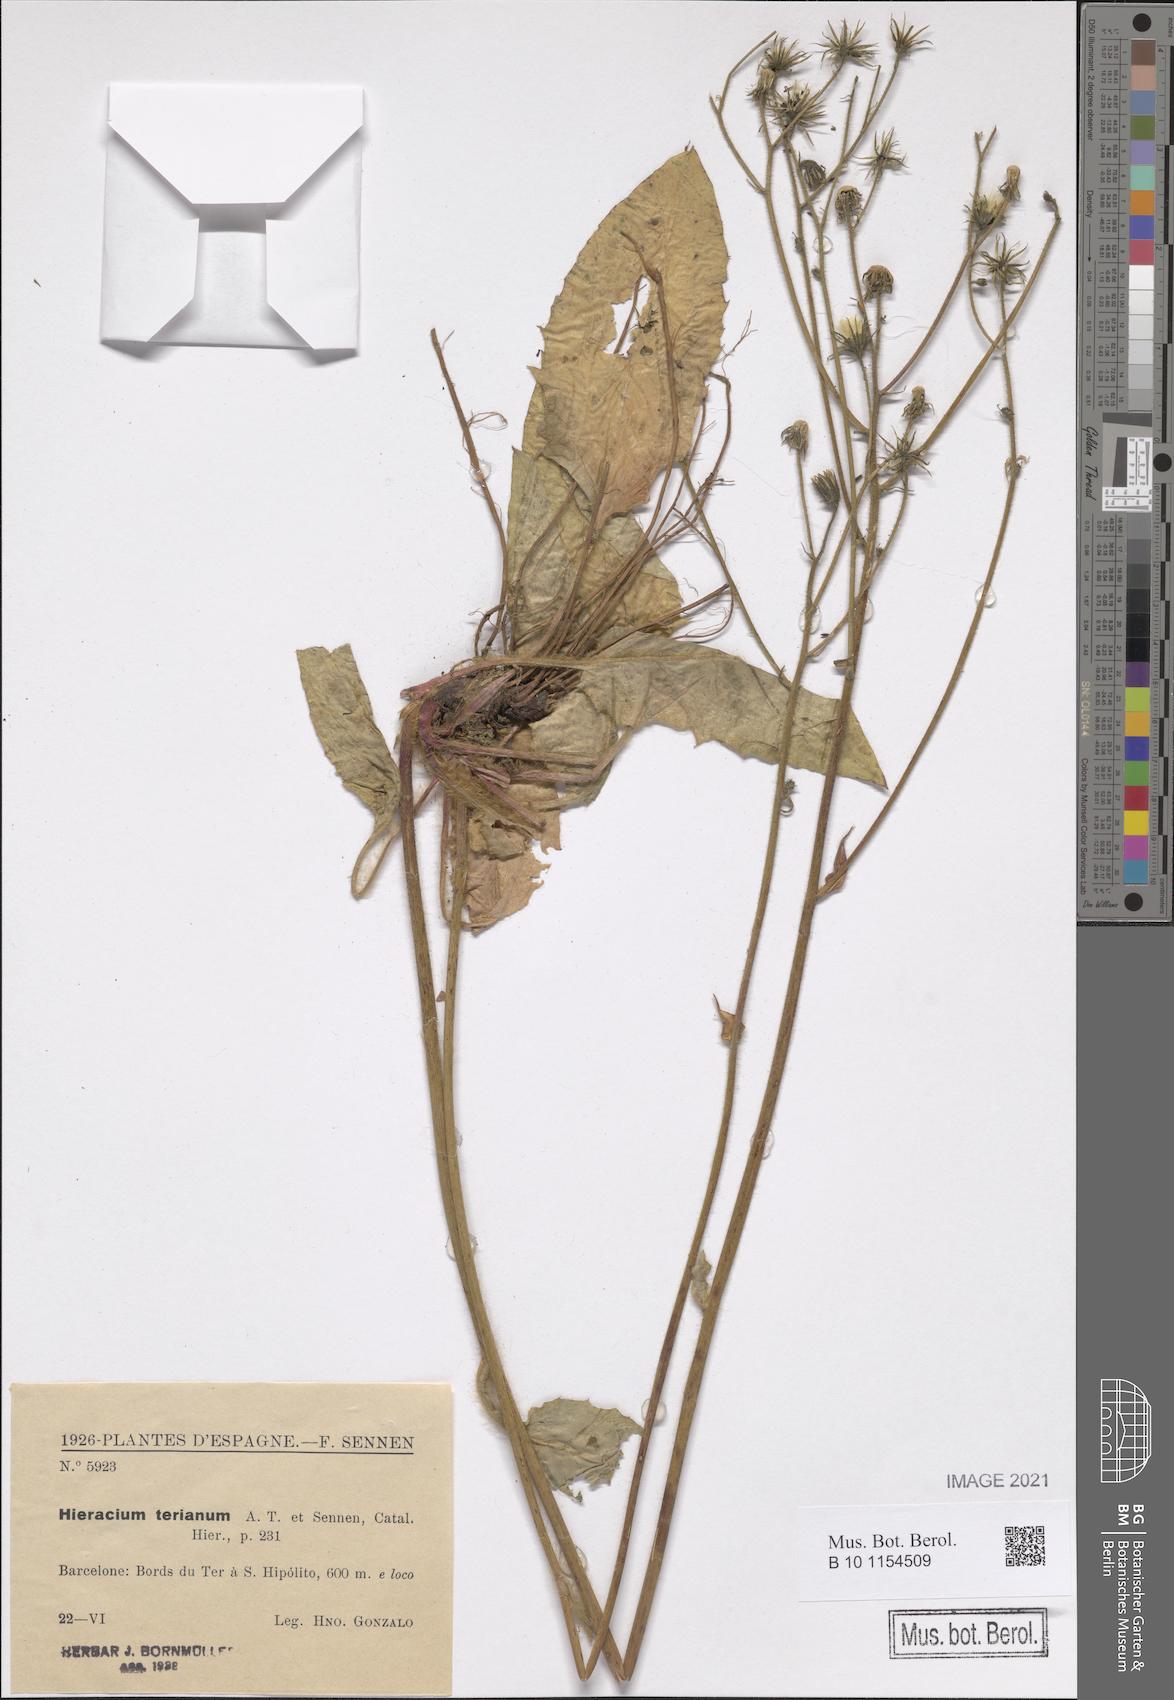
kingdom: Plantae
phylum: Tracheophyta
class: Magnoliopsida
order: Asterales
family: Asteraceae
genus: Hieracium
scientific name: Hieracium bicolor
